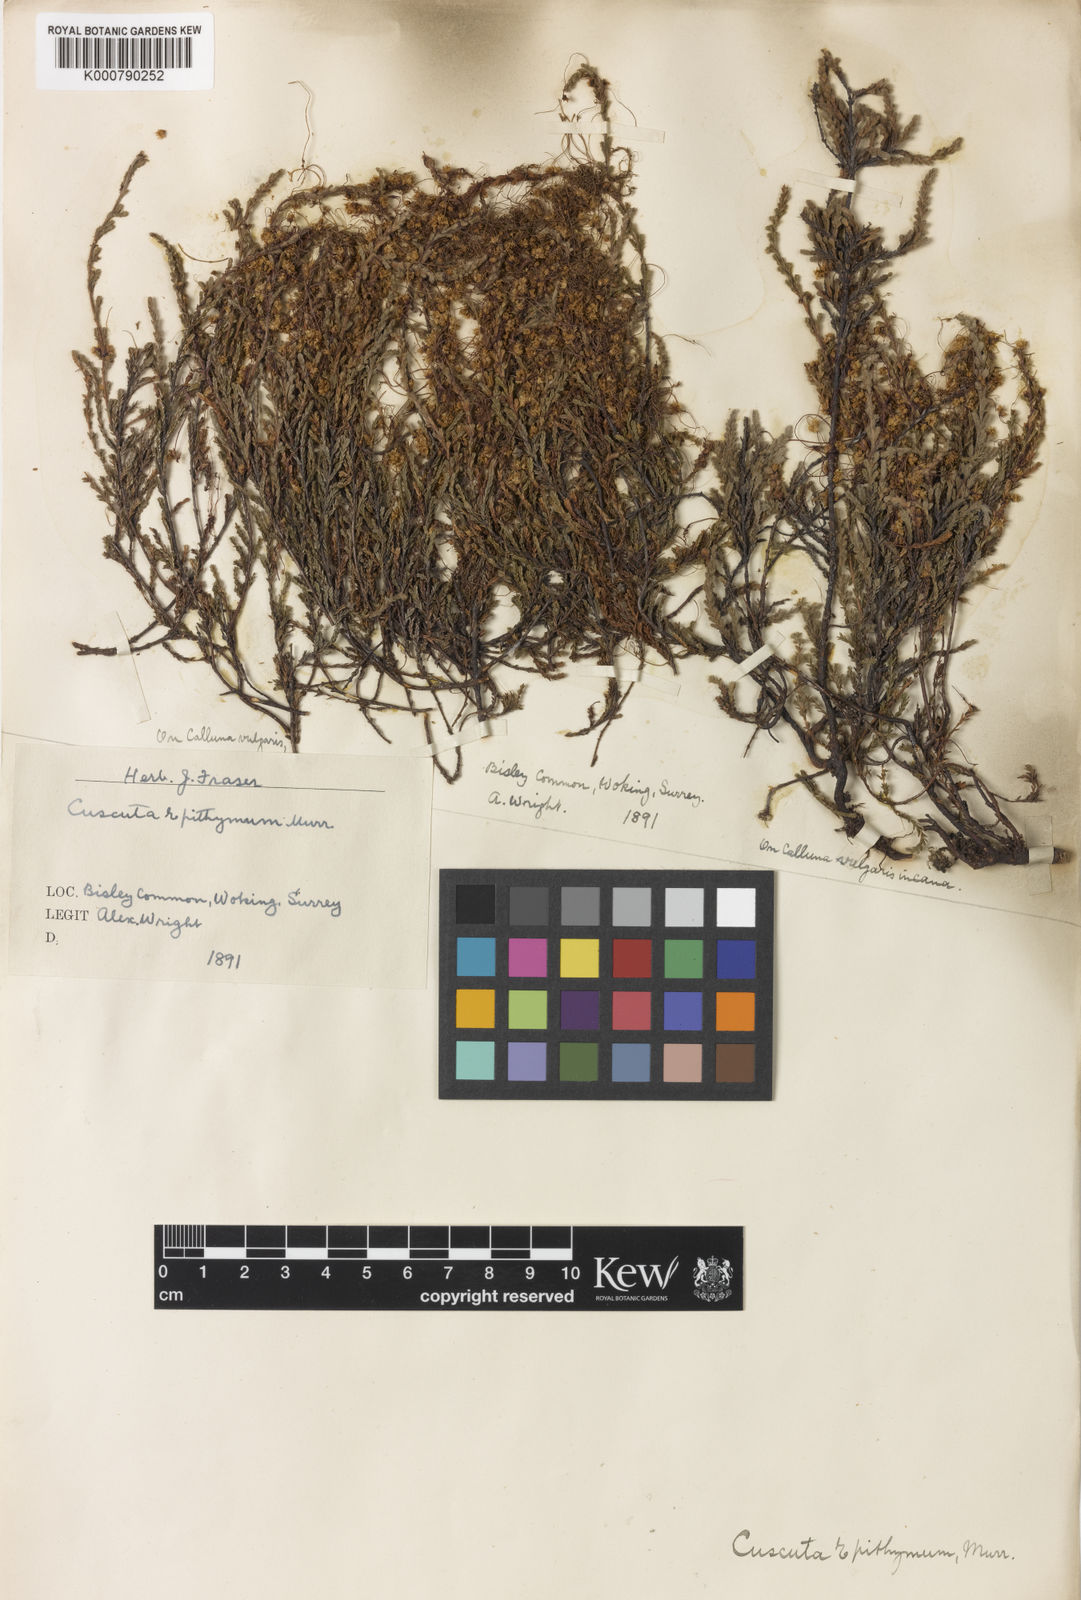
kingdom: Plantae
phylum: Tracheophyta
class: Magnoliopsida
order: Solanales
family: Convolvulaceae
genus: Cuscuta
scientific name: Cuscuta epithymum
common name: Clover dodder
